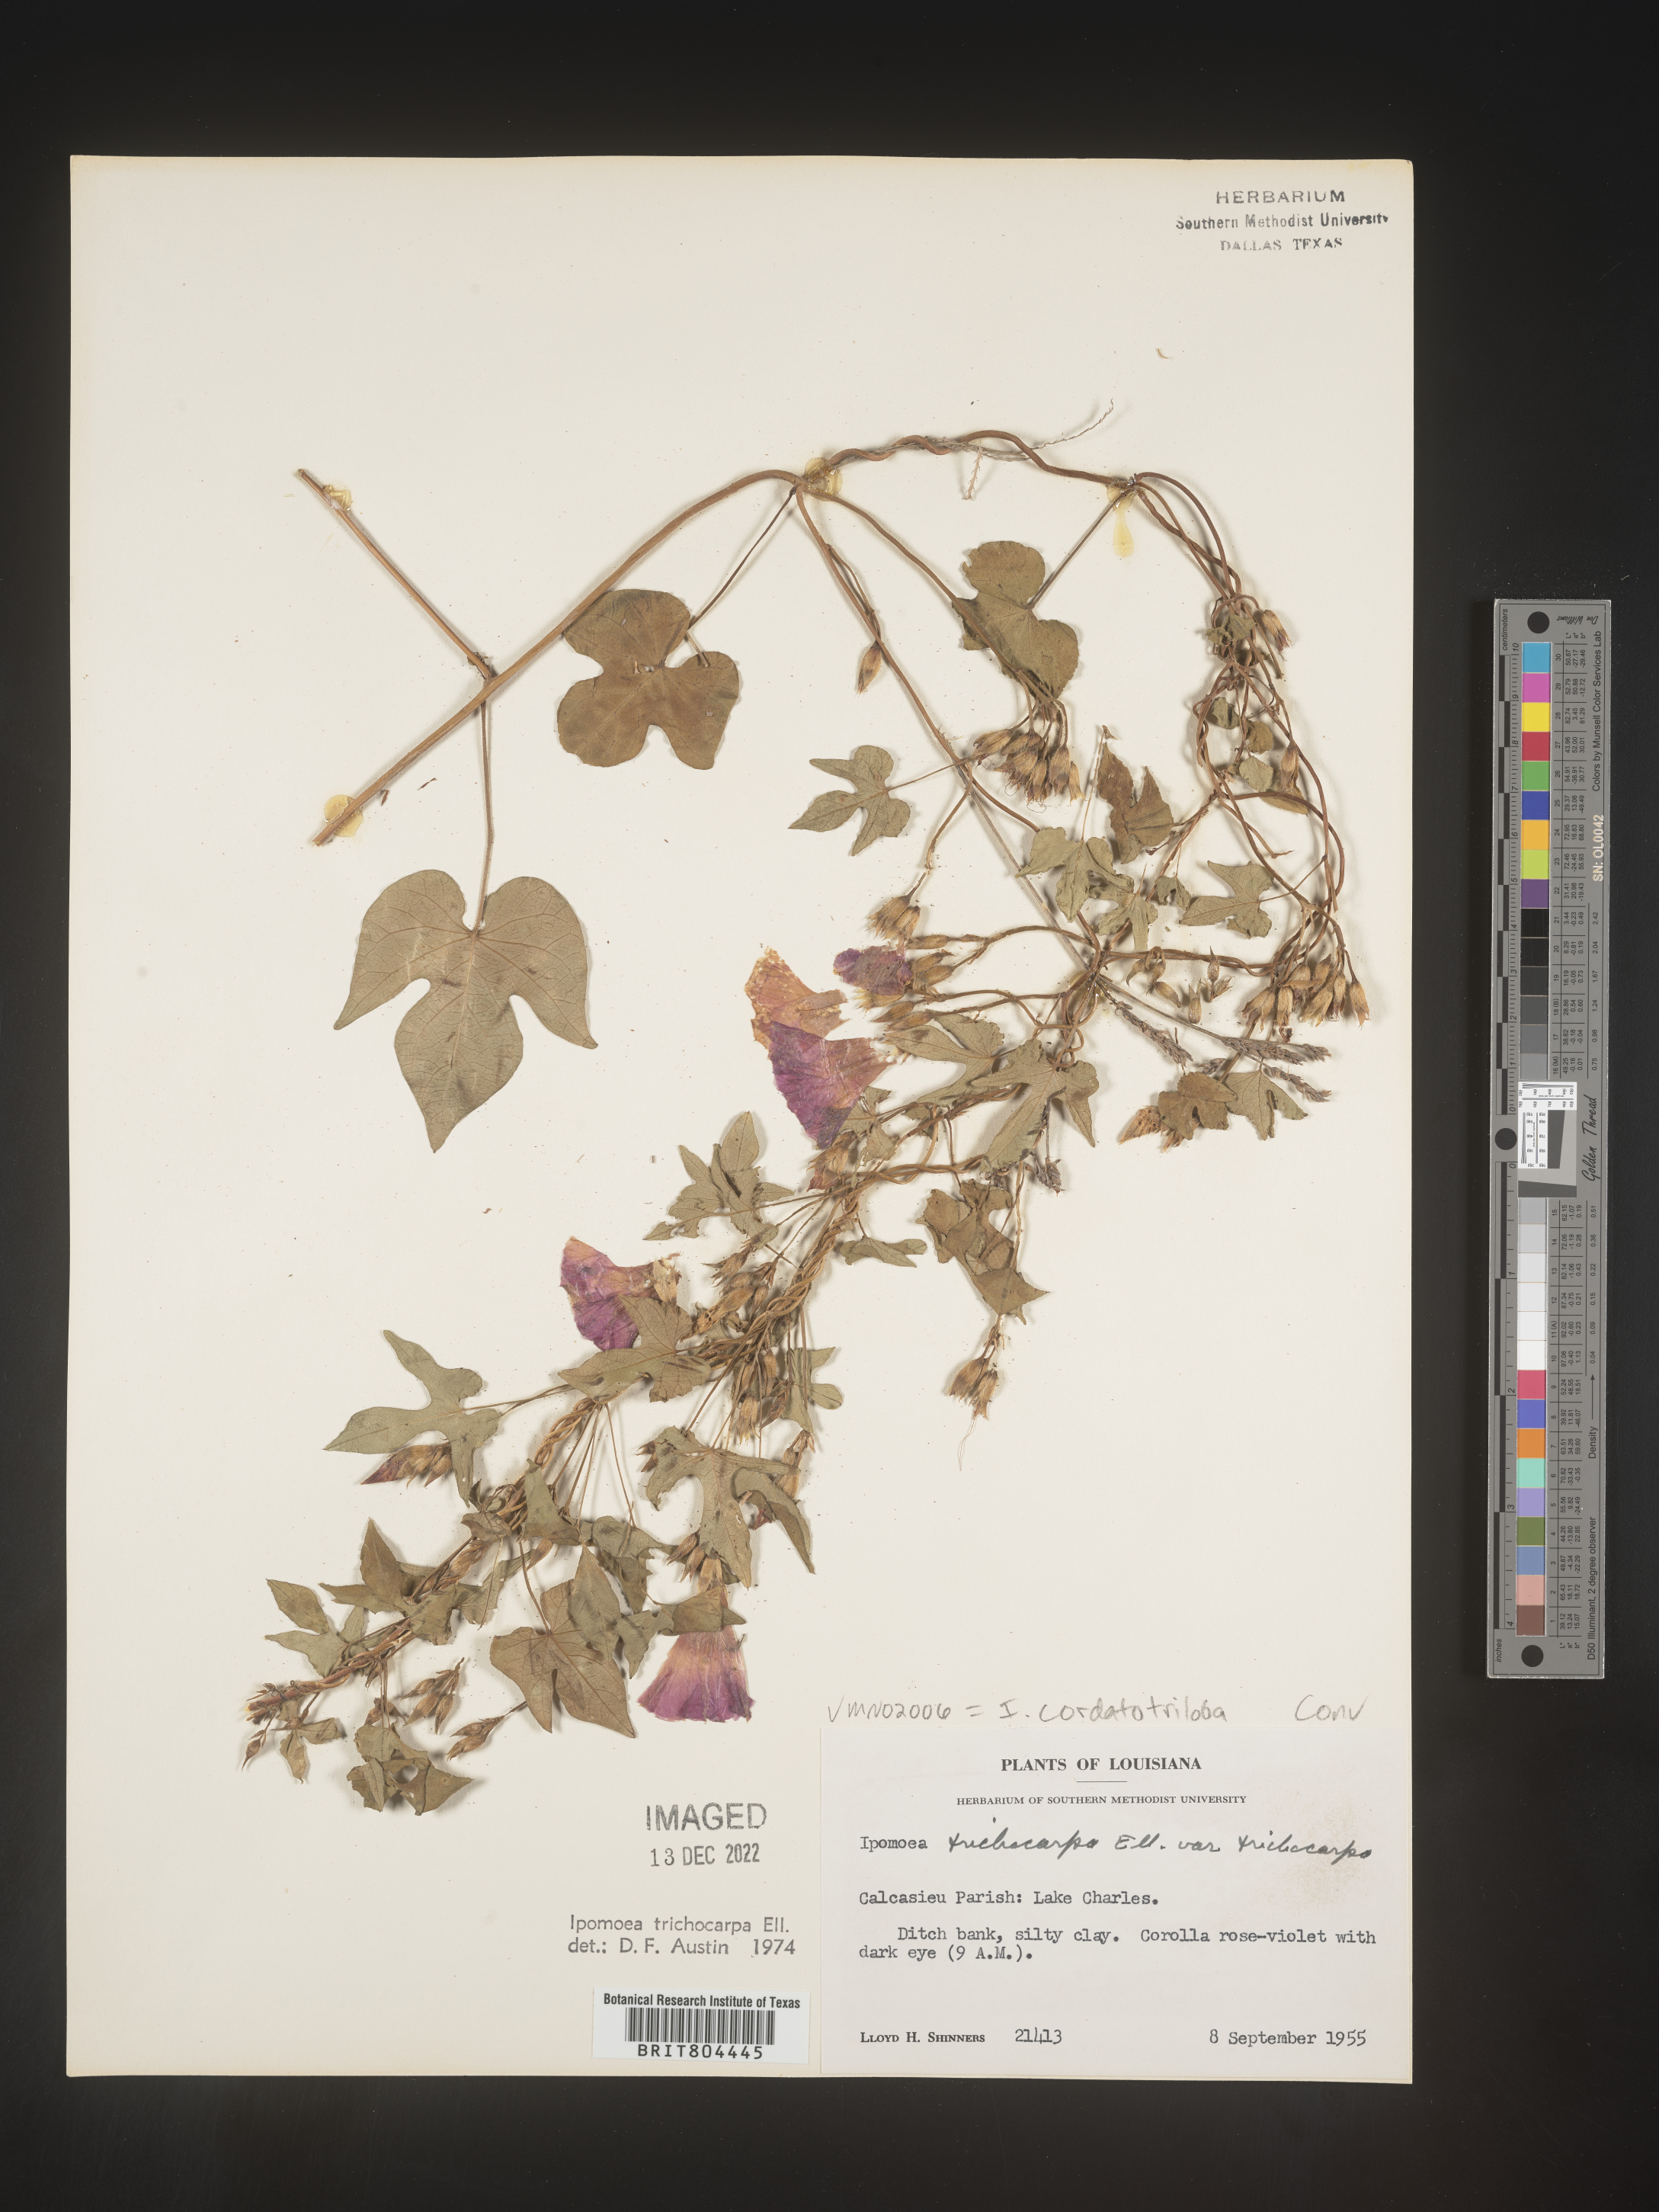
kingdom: Plantae
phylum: Tracheophyta
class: Magnoliopsida
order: Solanales
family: Convolvulaceae
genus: Ipomoea
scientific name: Ipomoea cordatotriloba
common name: Cotton morning glory
